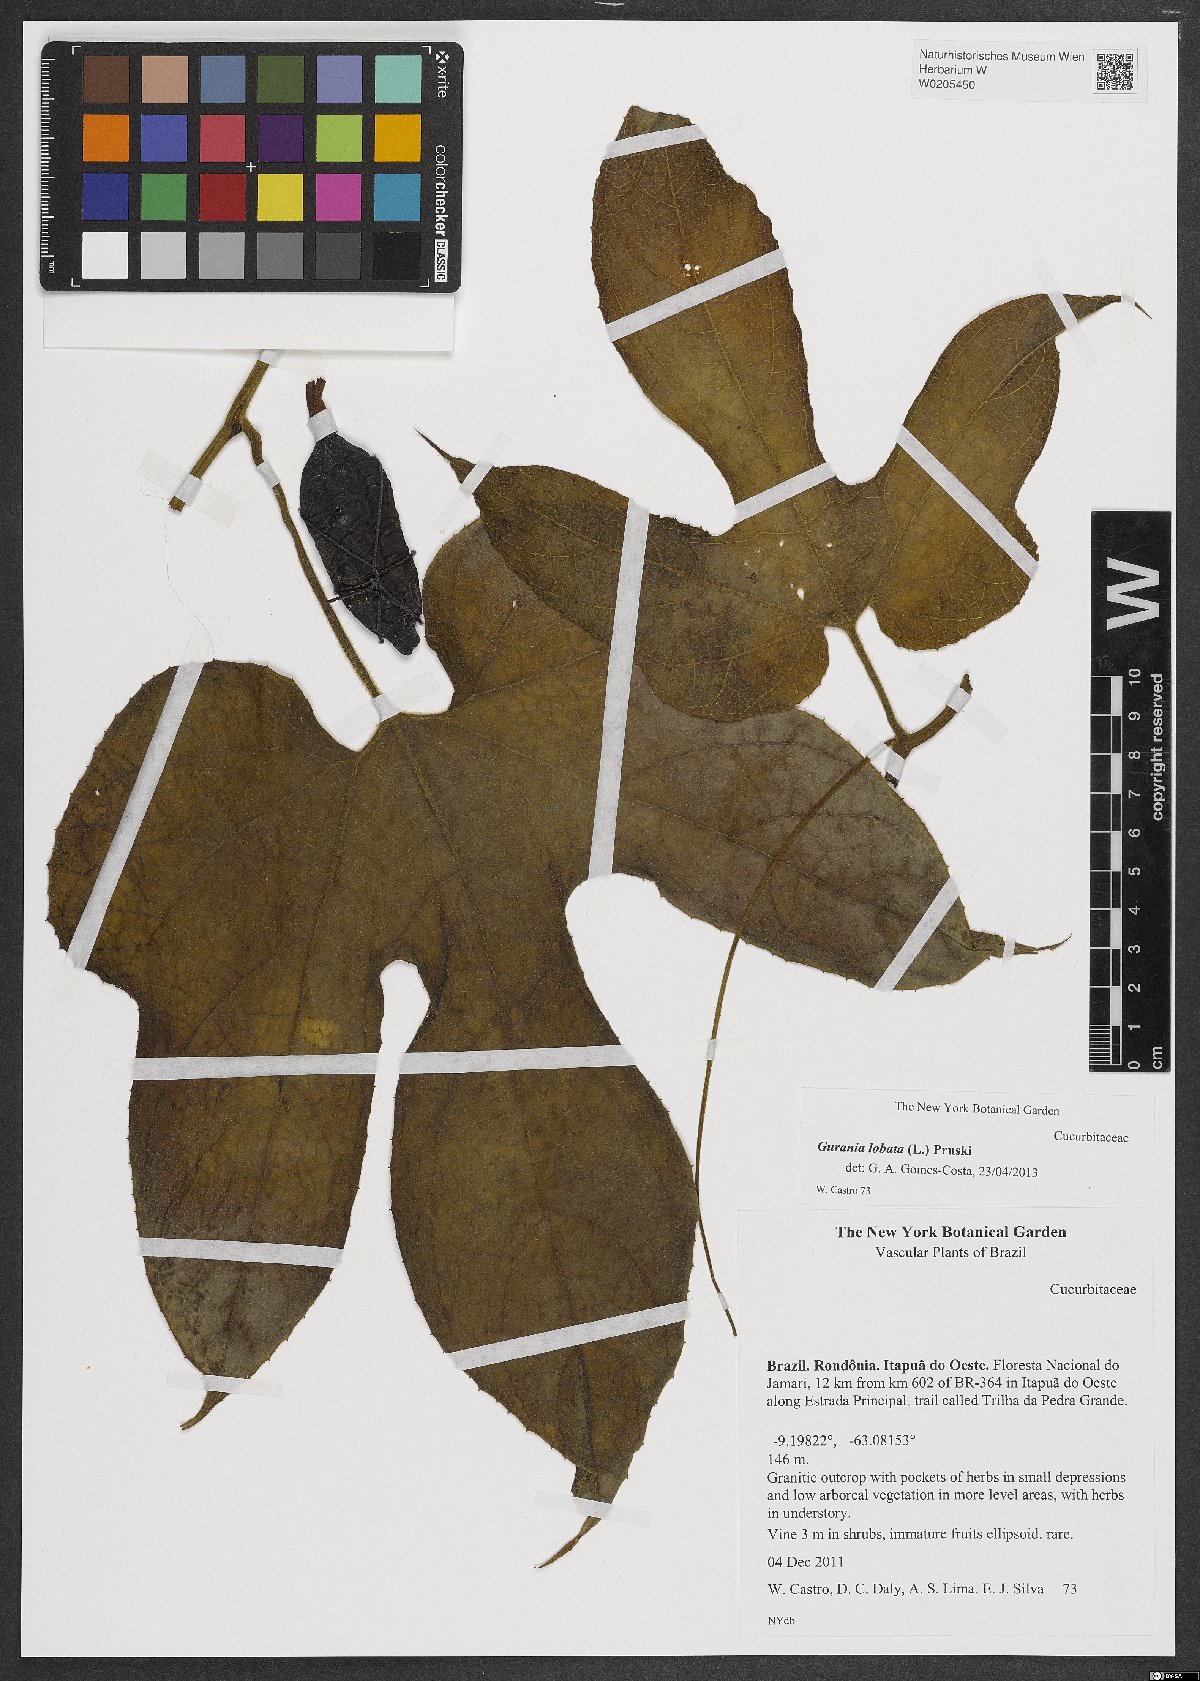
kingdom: Plantae
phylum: Tracheophyta
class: Magnoliopsida
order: Cucurbitales
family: Cucurbitaceae
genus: Gurania
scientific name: Gurania lobata
